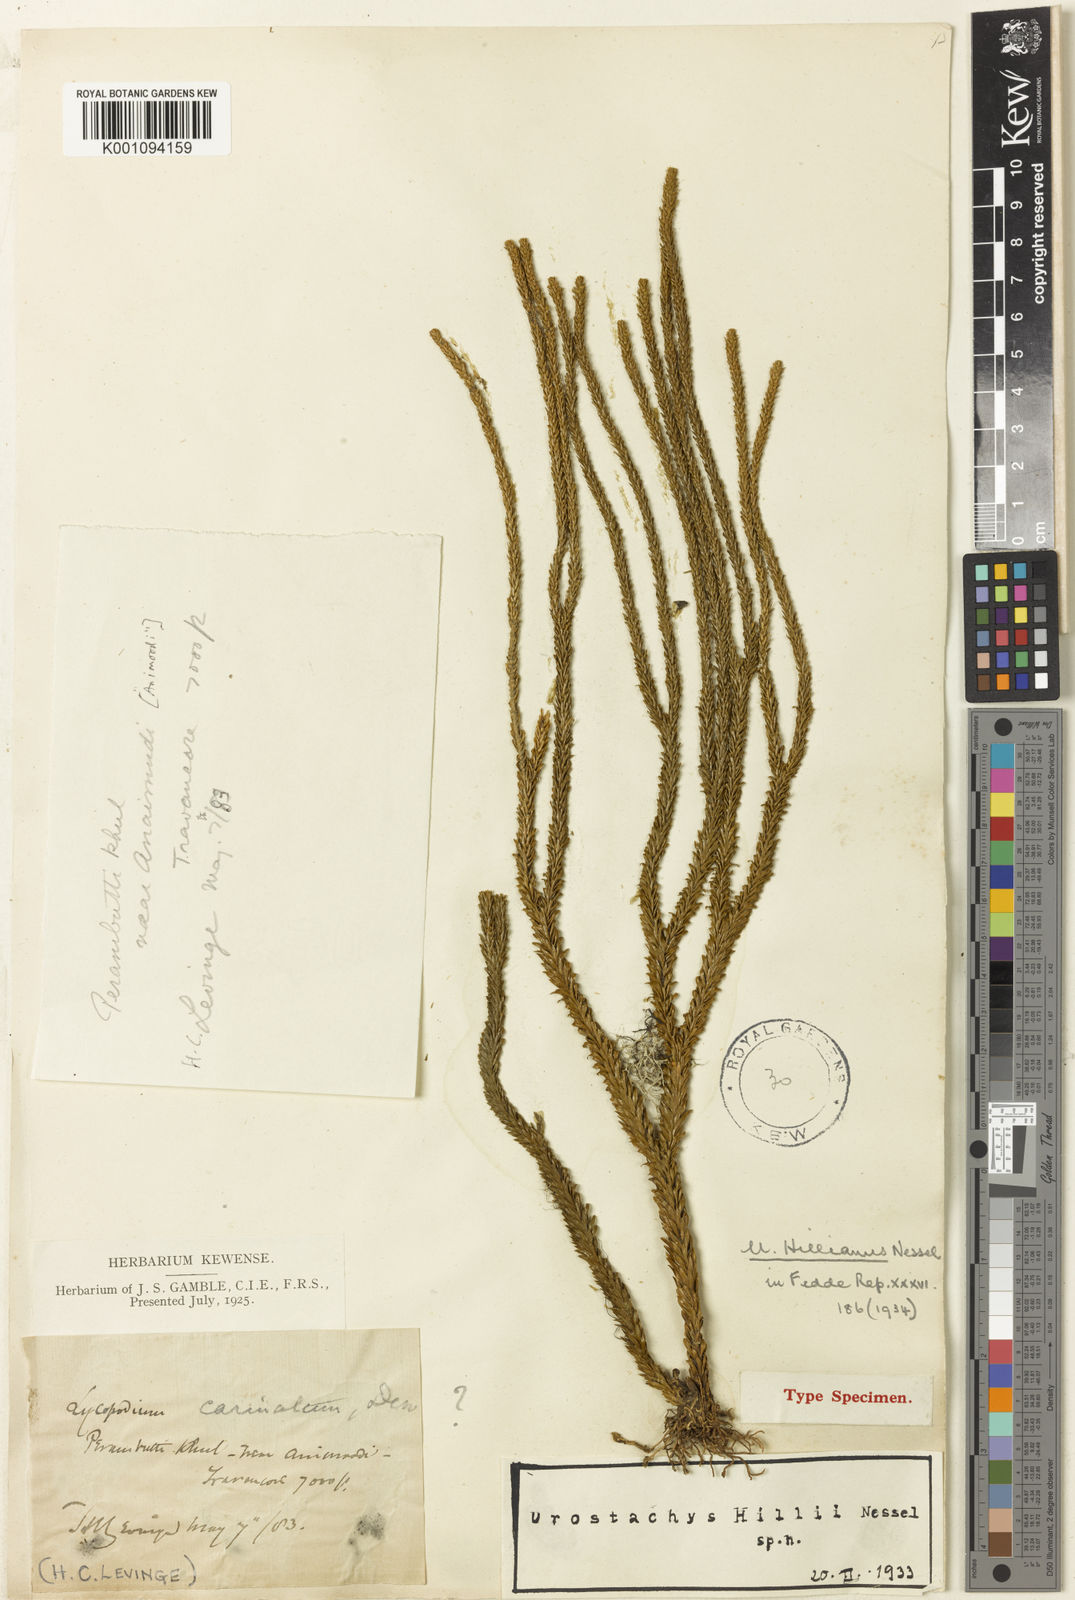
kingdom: Plantae
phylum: Tracheophyta
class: Lycopodiopsida
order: Lycopodiales
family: Lycopodiaceae
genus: Phlegmariurus
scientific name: Phlegmariurus carinatus
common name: Keeled tassel-fern
